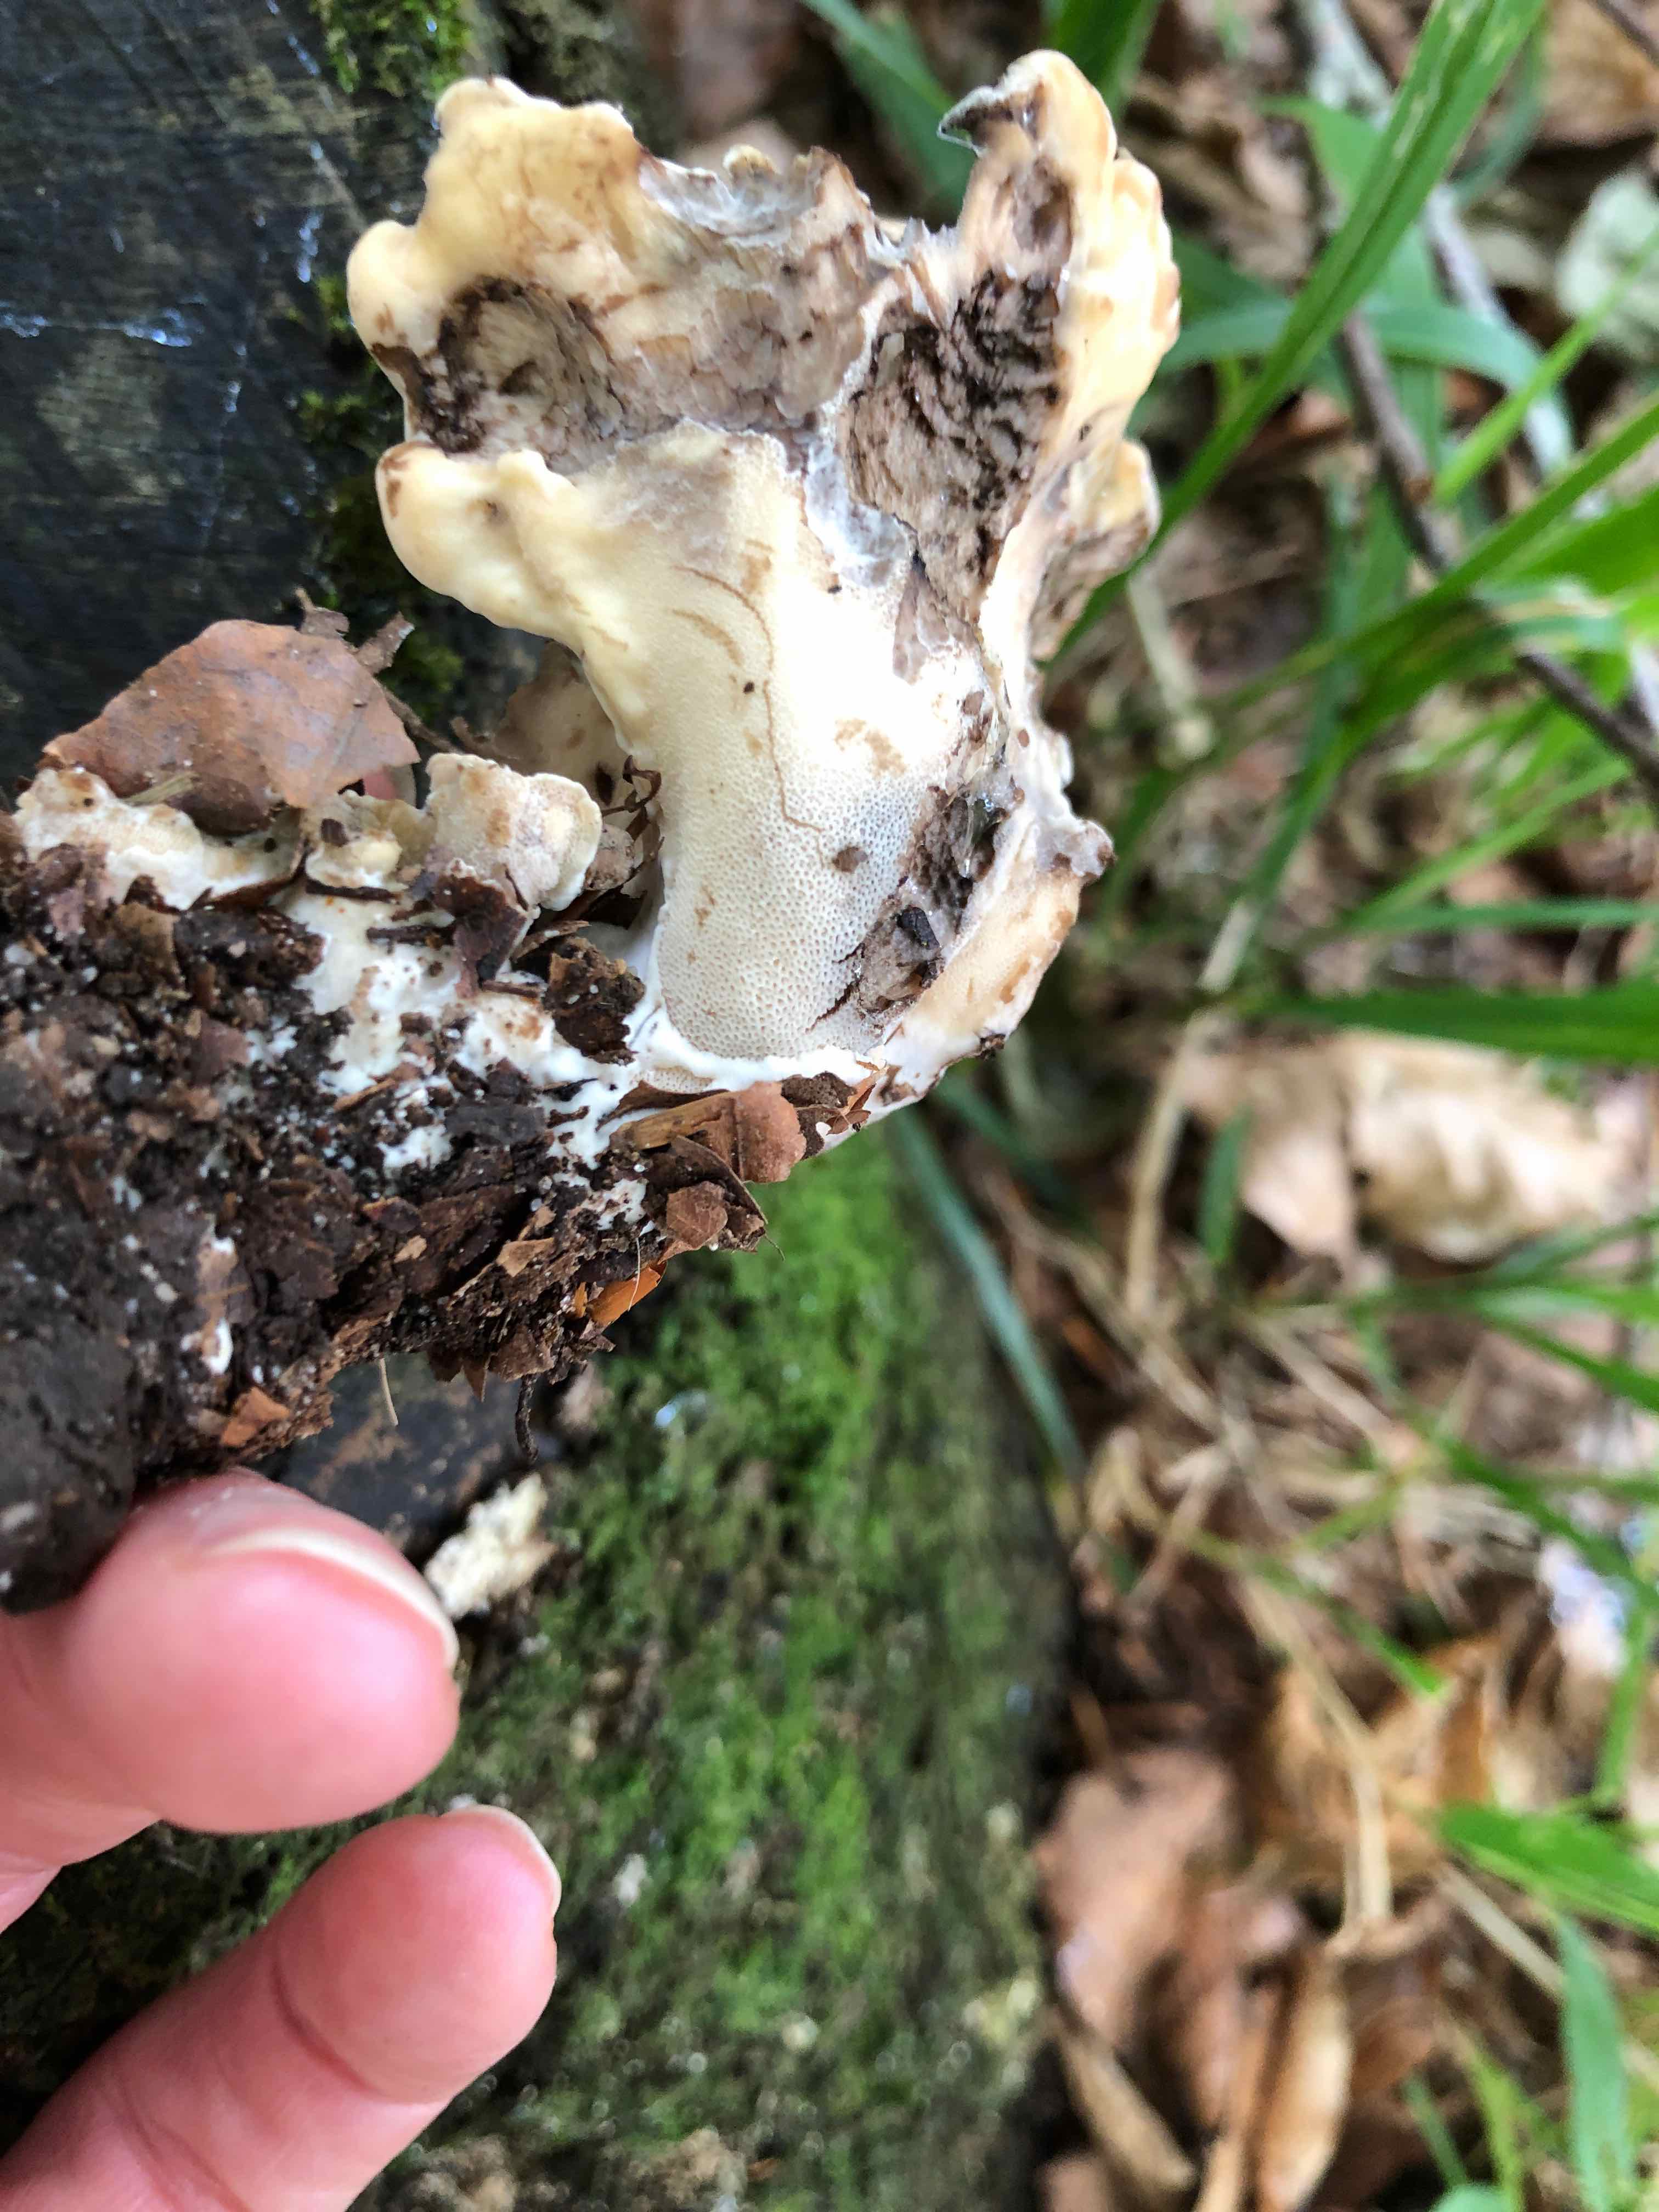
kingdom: Fungi
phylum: Basidiomycota
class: Agaricomycetes
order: Polyporales
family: Meripilaceae
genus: Meripilus
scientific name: Meripilus giganteus
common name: kæmpeporesvamp
